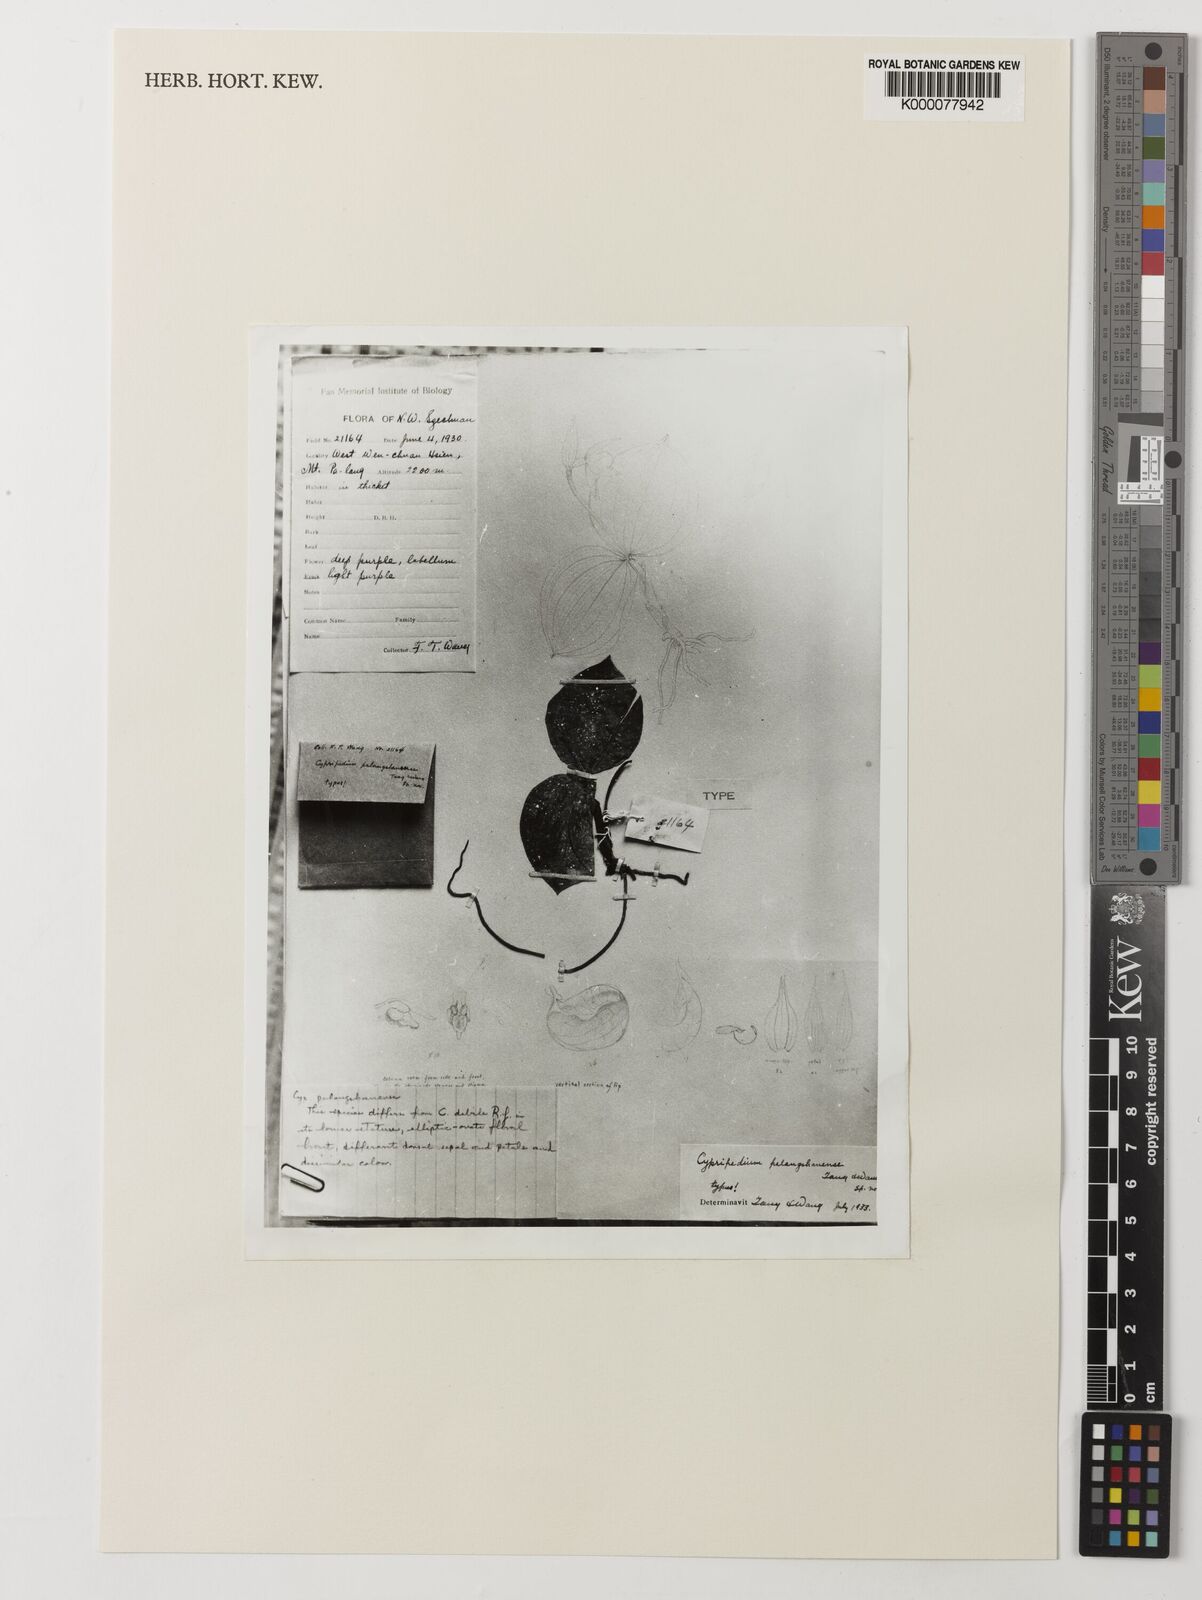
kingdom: Plantae
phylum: Tracheophyta
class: Liliopsida
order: Asparagales
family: Orchidaceae
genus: Cypripedium
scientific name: Cypripedium palangshanense
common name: Palangshan cypripedium
